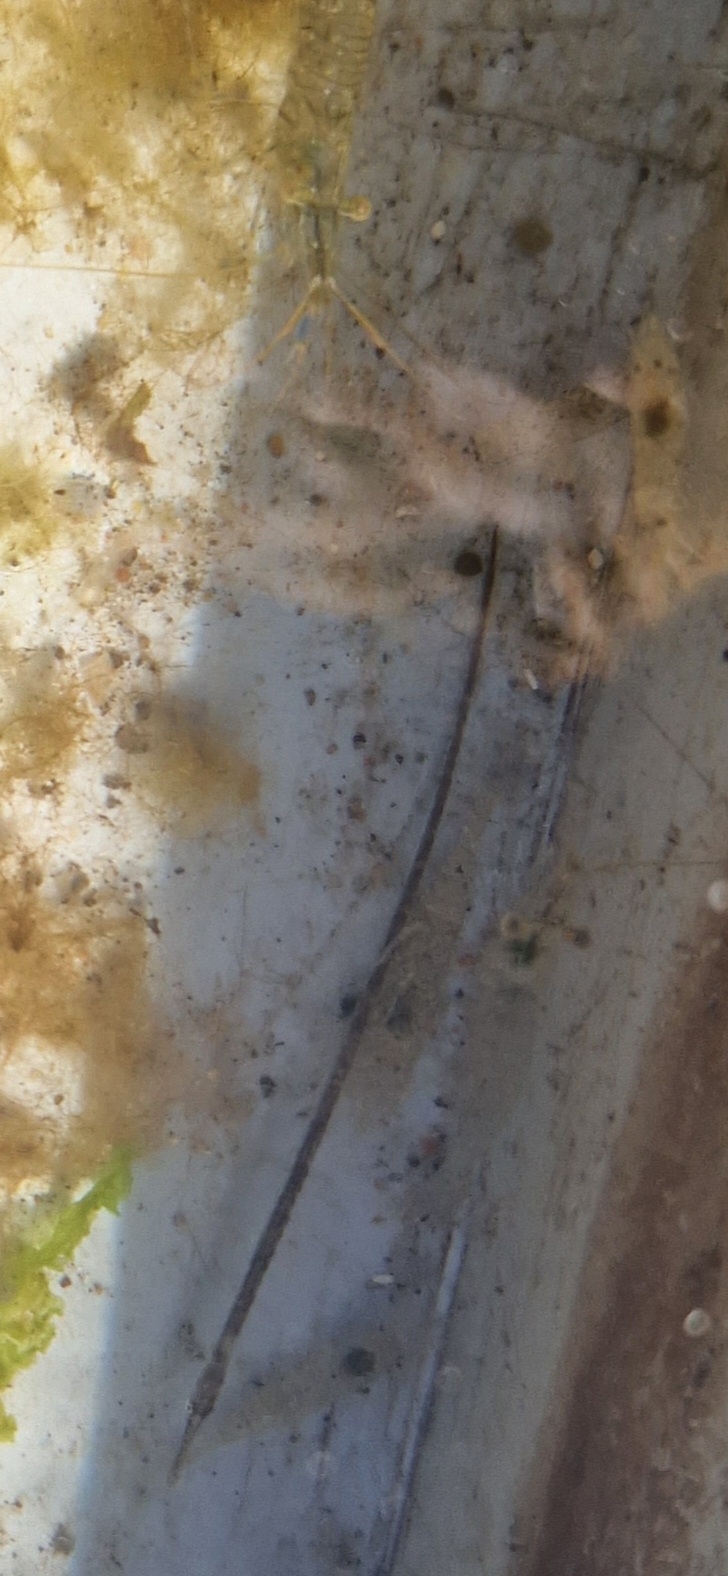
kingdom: Animalia
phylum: Chordata
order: Syngnathiformes
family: Syngnathidae
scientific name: Syngnathidae
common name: Nålefiskfamilien
